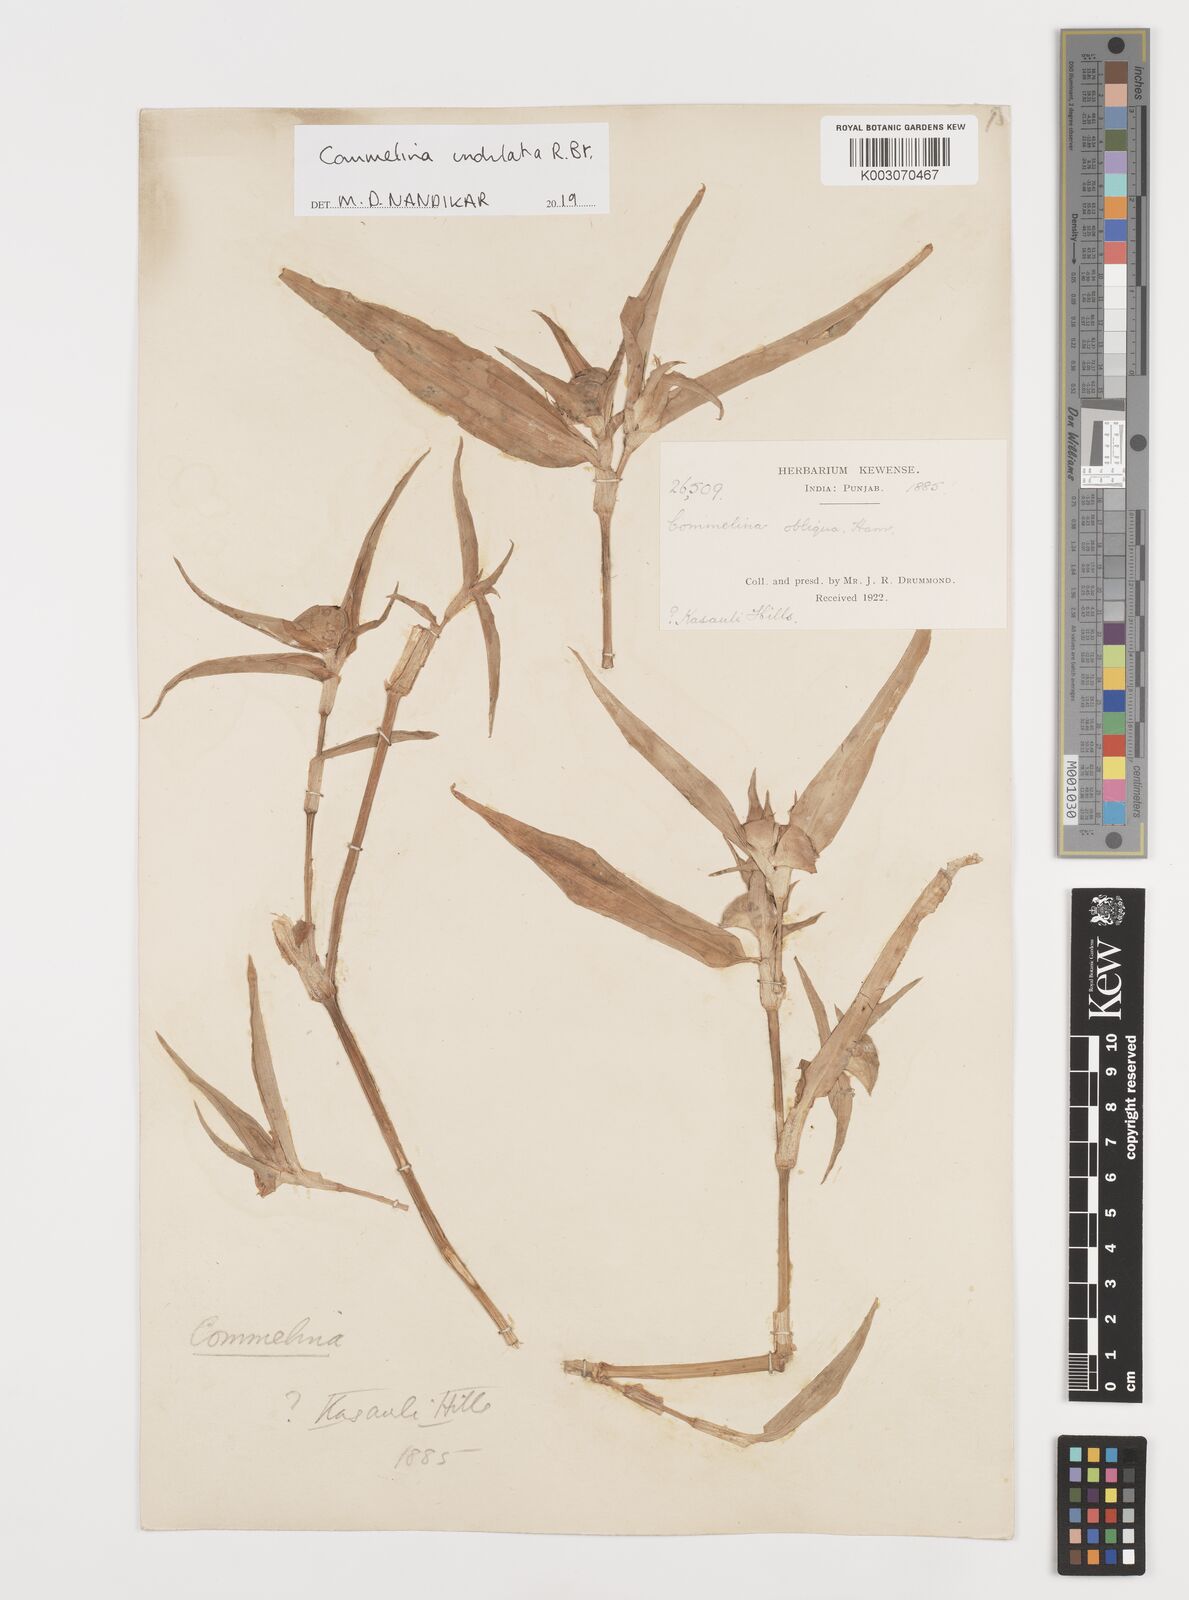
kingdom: Plantae
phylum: Tracheophyta
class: Liliopsida
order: Commelinales
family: Commelinaceae
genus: Commelina
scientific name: Commelina undulata
